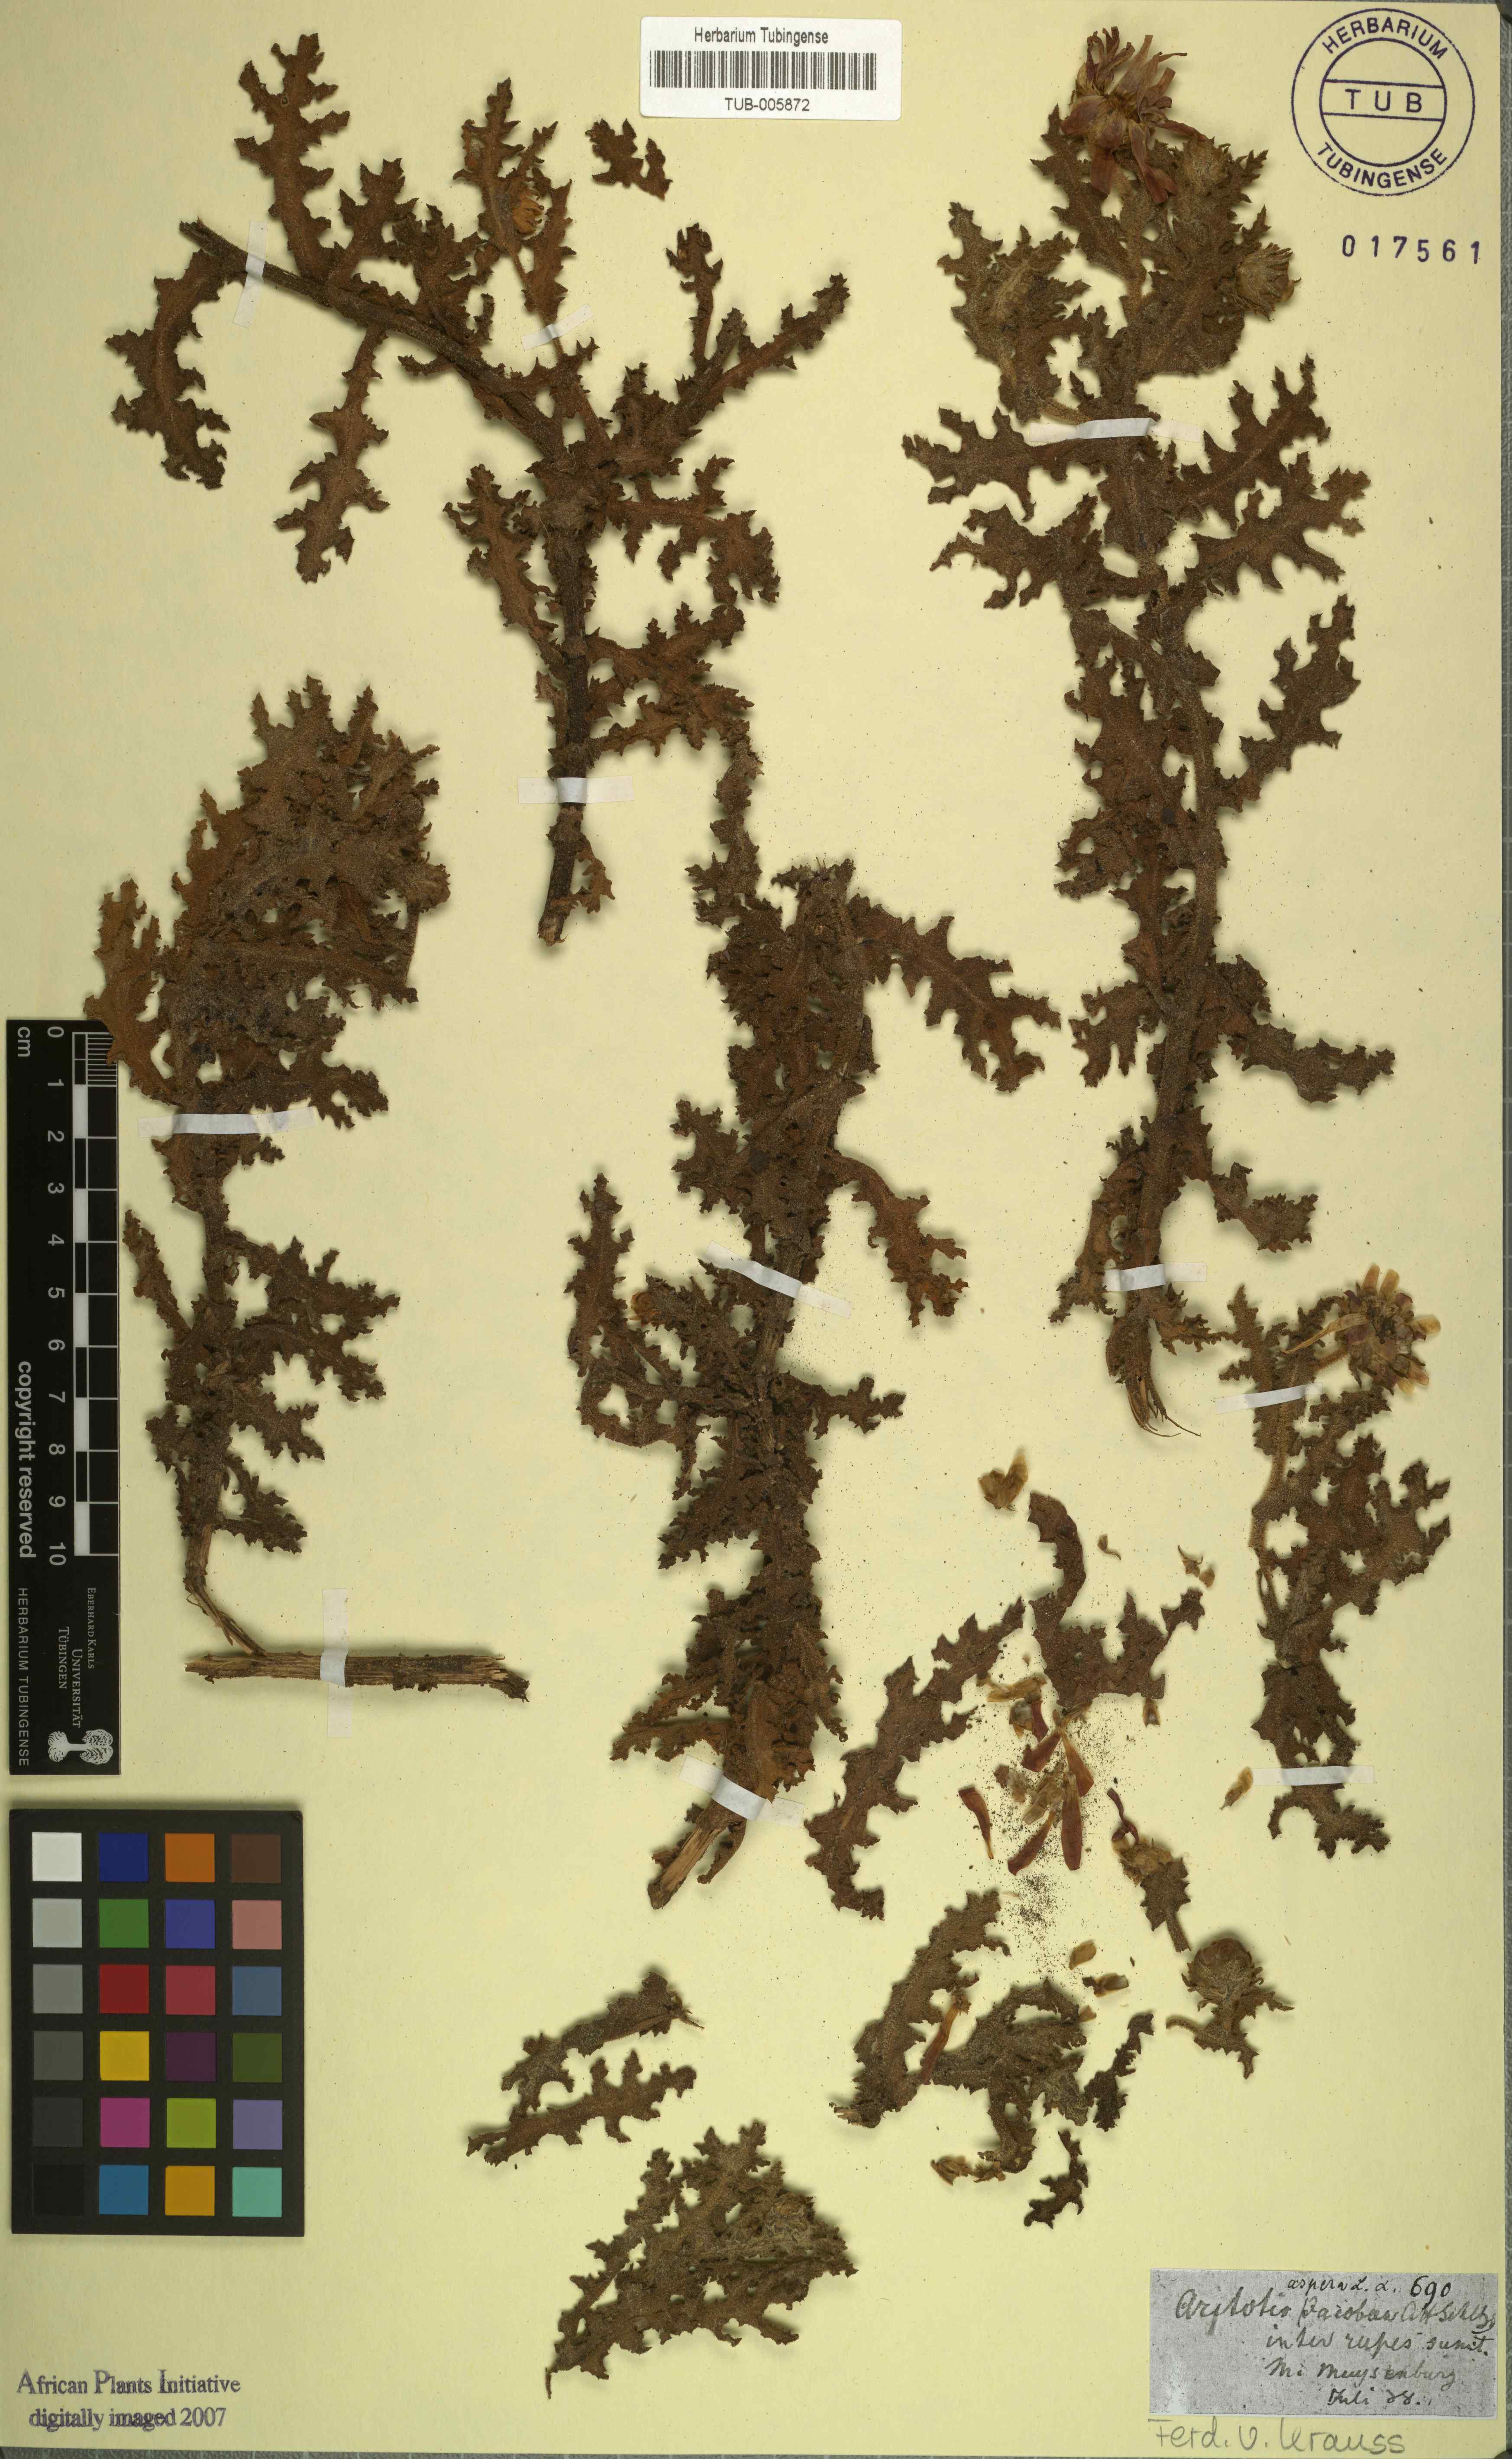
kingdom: Plantae
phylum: Tracheophyta
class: Magnoliopsida
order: Asterales
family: Asteraceae
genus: Arctotis
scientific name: Arctotis aspera
